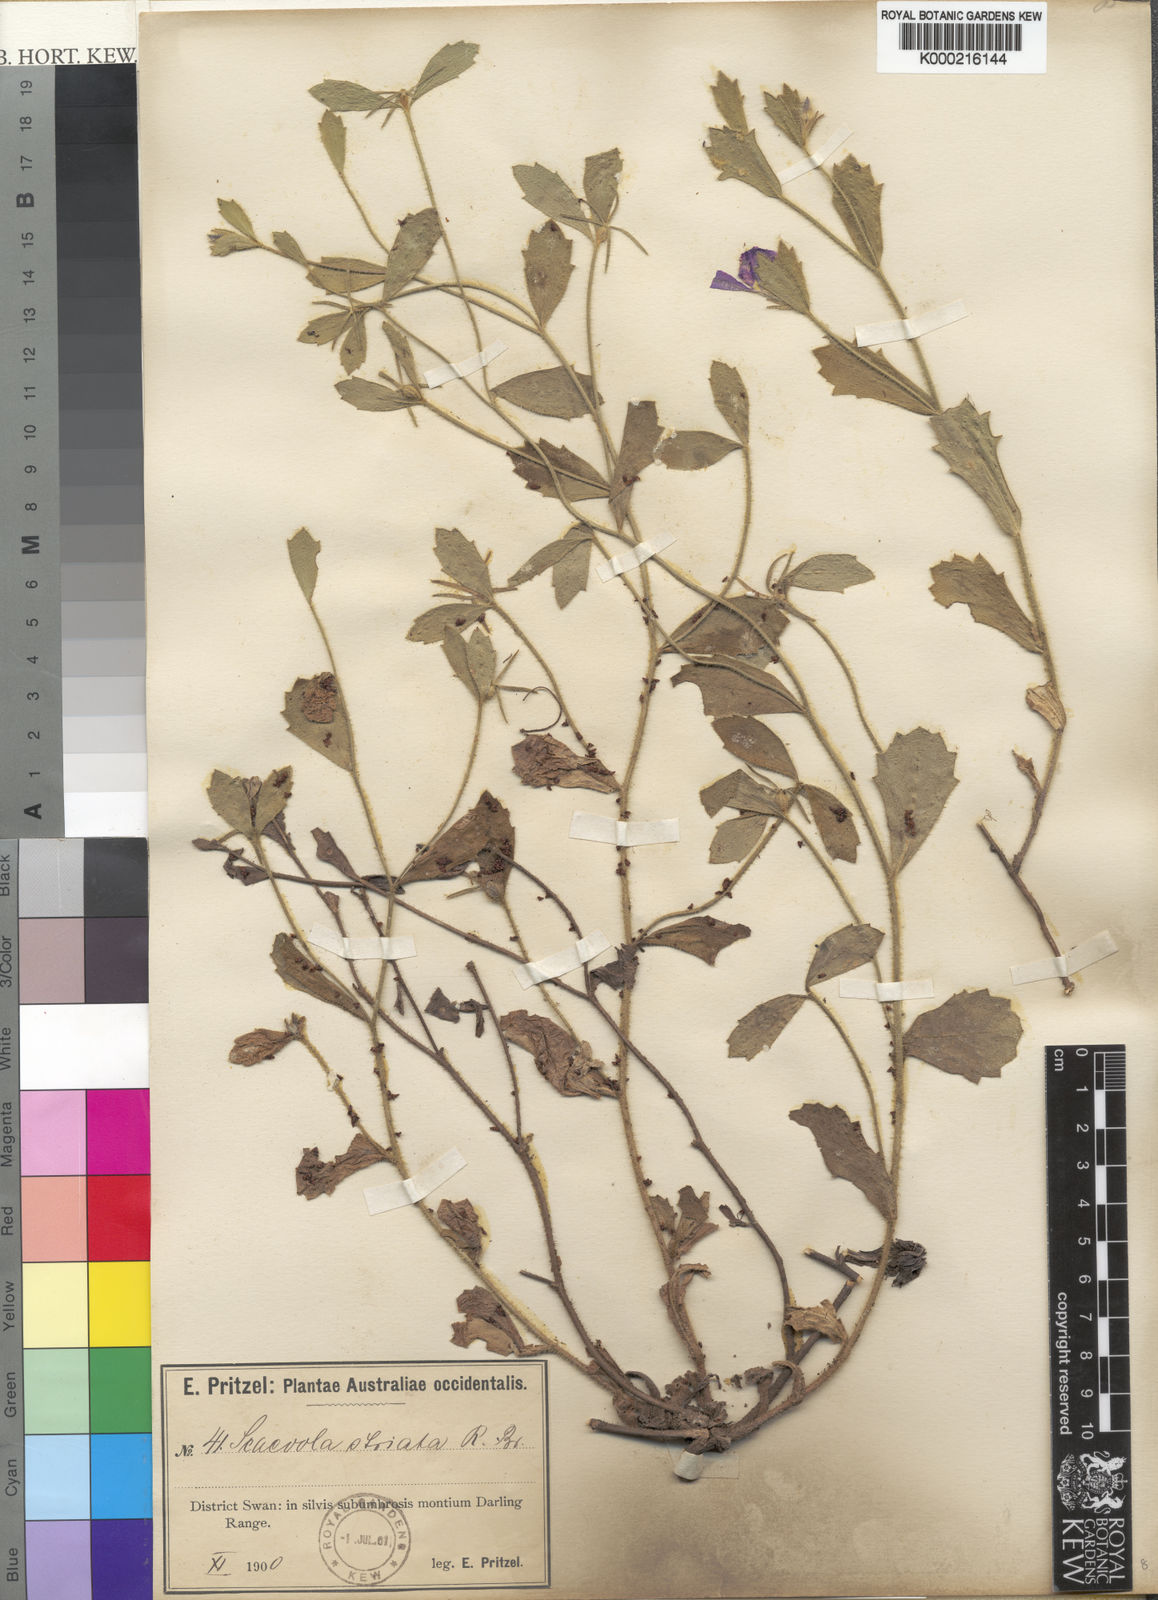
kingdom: Plantae
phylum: Tracheophyta
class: Magnoliopsida
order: Asterales
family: Goodeniaceae
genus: Scaevola
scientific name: Scaevola striata
